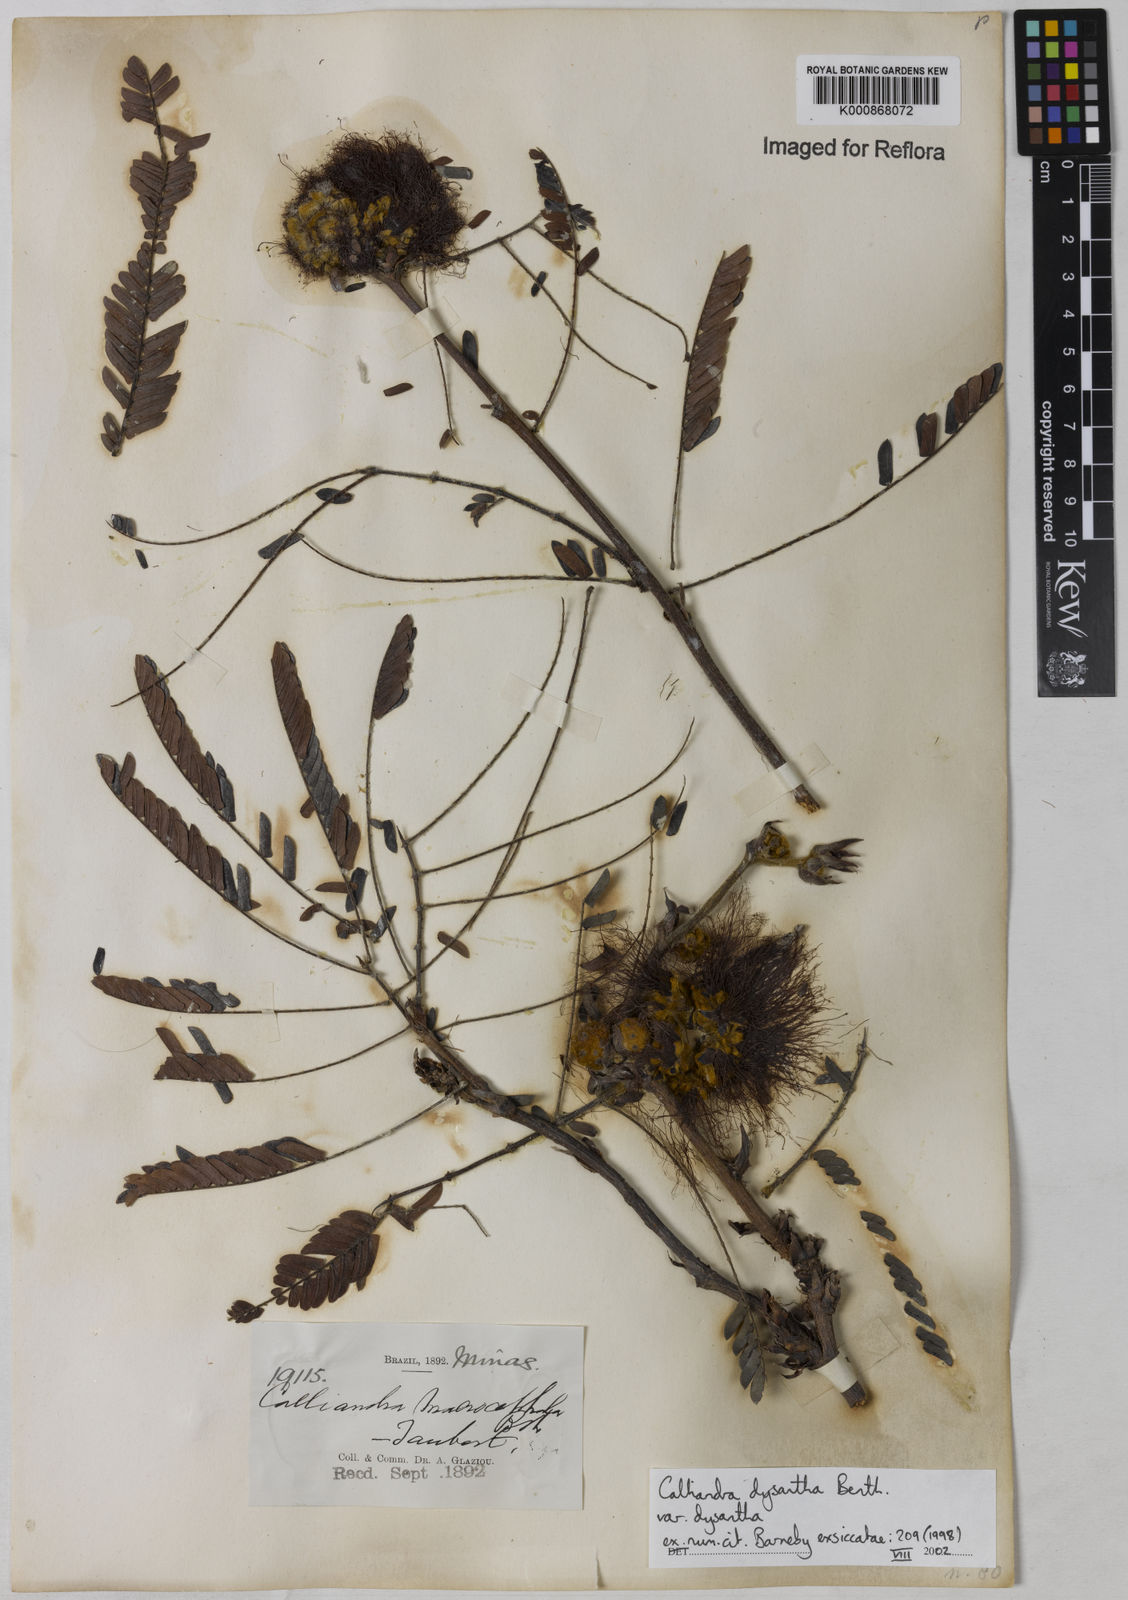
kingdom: Plantae
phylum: Tracheophyta
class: Magnoliopsida
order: Fabales
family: Fabaceae
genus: Calliandra
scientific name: Calliandra dysantha
